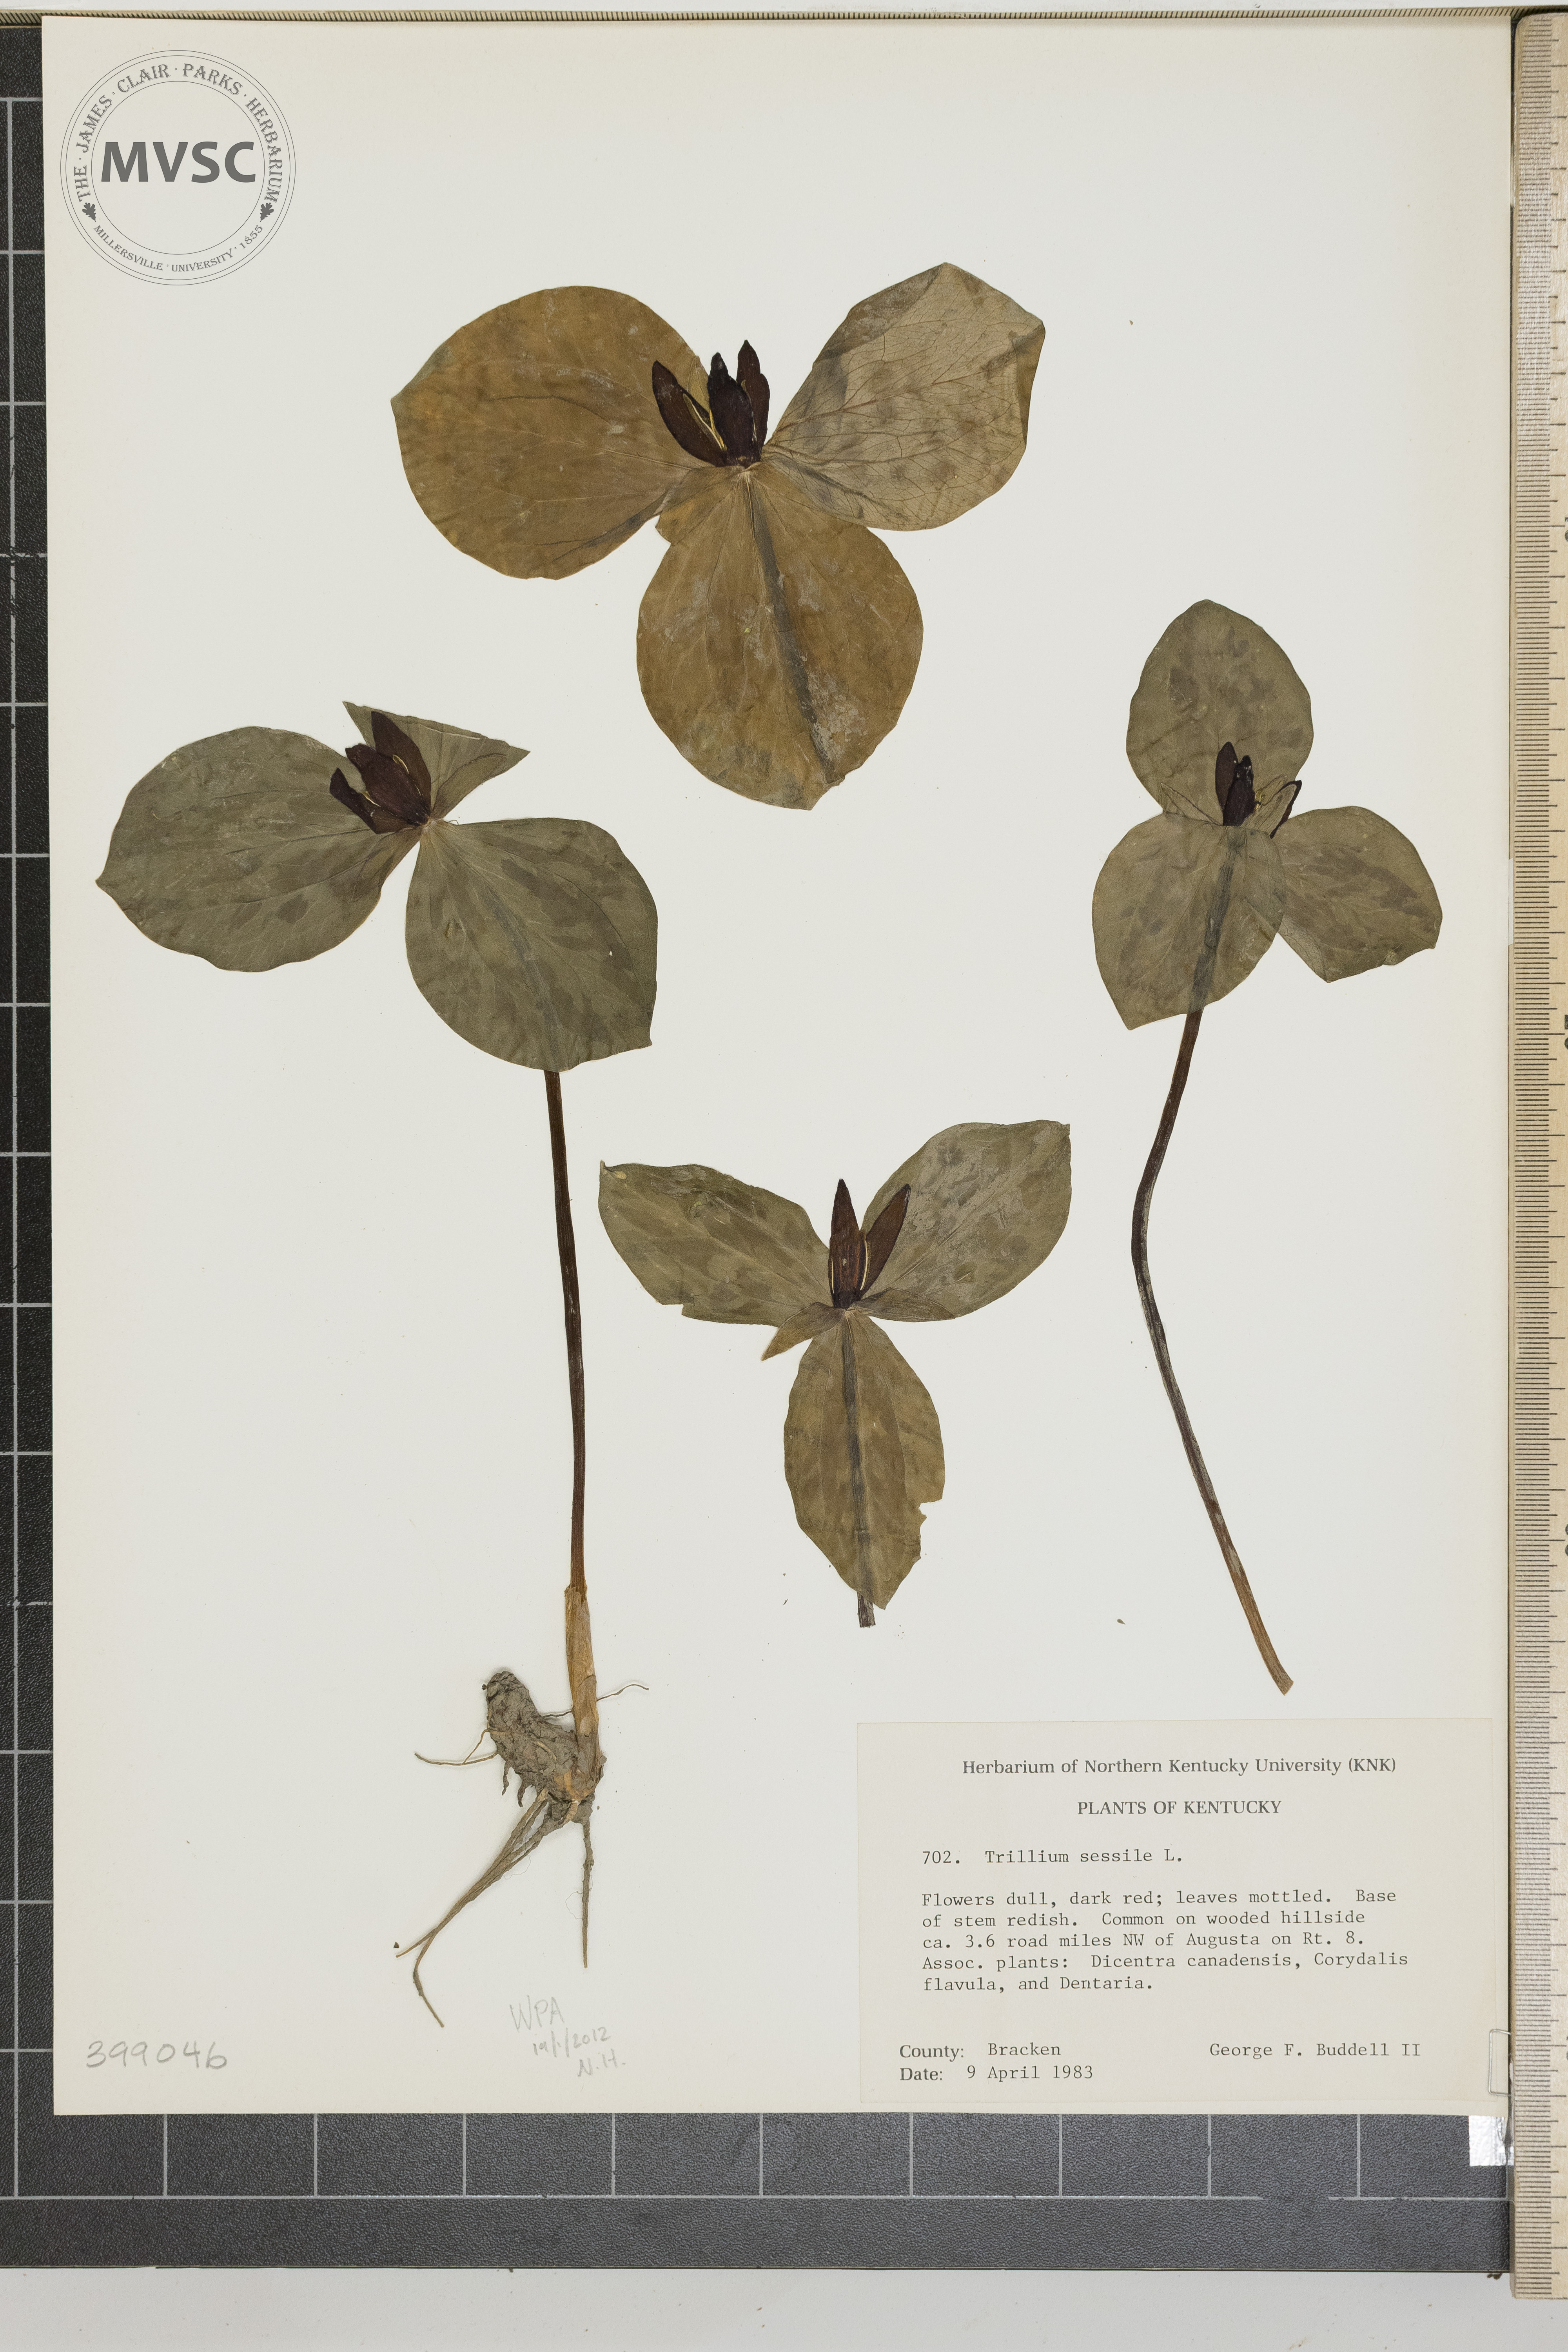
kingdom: Plantae
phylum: Tracheophyta
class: Liliopsida
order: Liliales
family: Melanthiaceae
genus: Trillium
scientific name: Trillium sessile
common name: Toadshade
